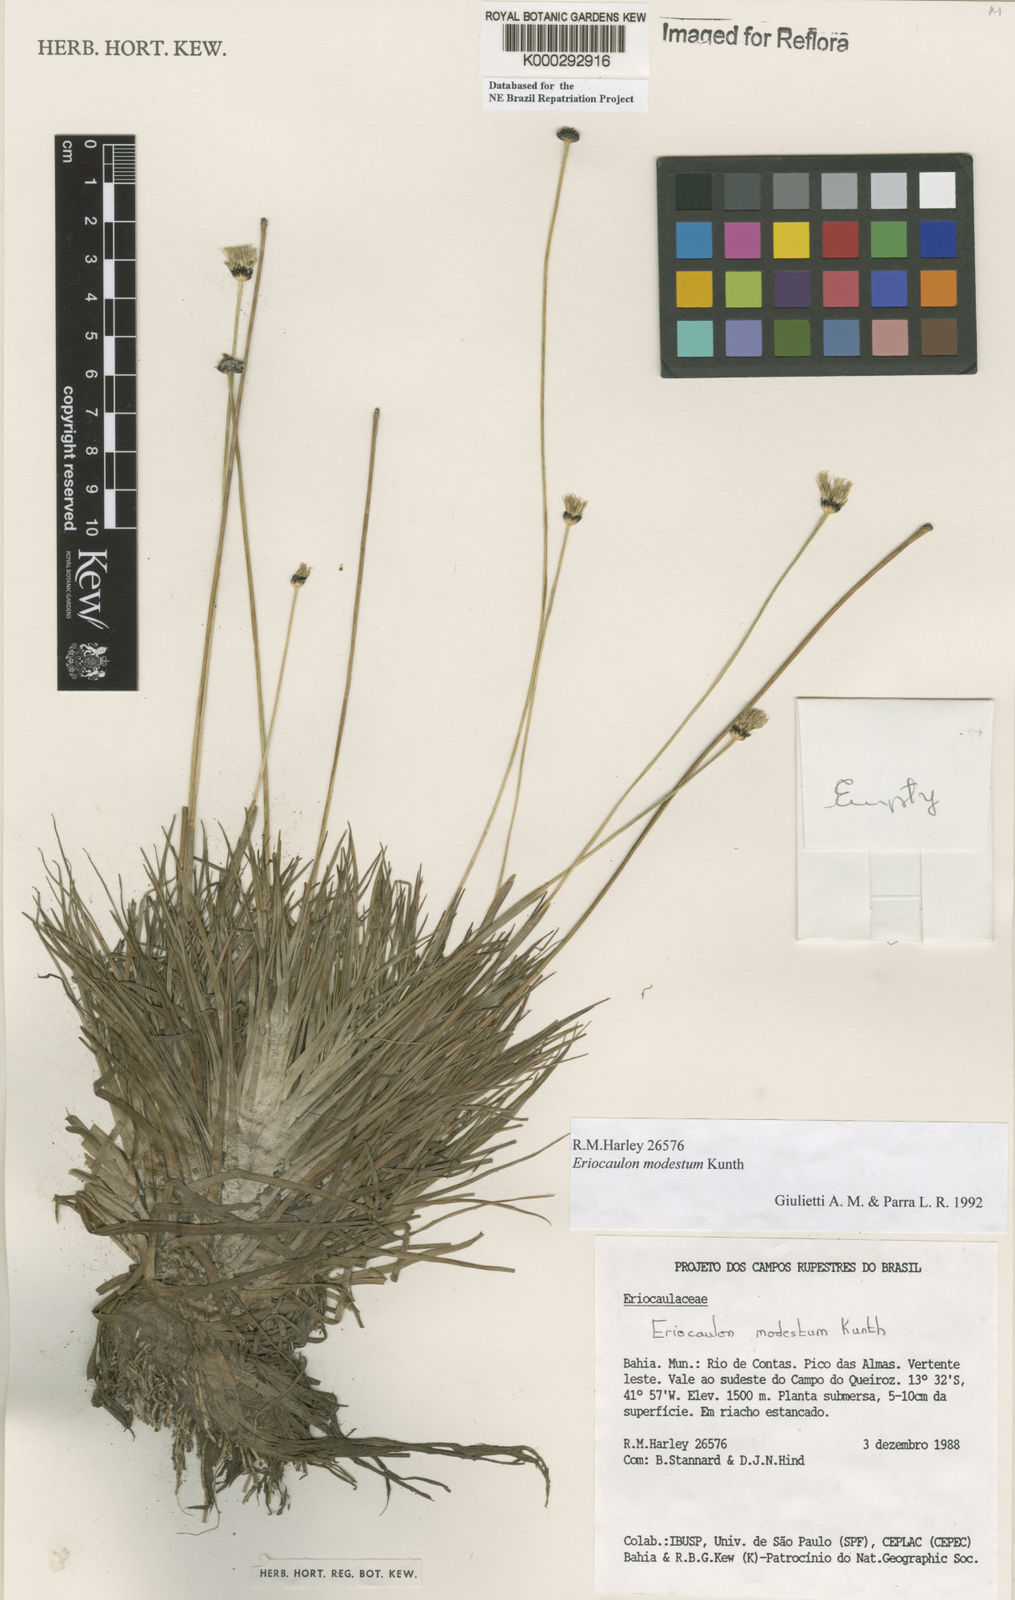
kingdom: Plantae
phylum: Tracheophyta
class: Liliopsida
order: Poales
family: Eriocaulaceae
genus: Eriocaulon
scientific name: Eriocaulon modestum
